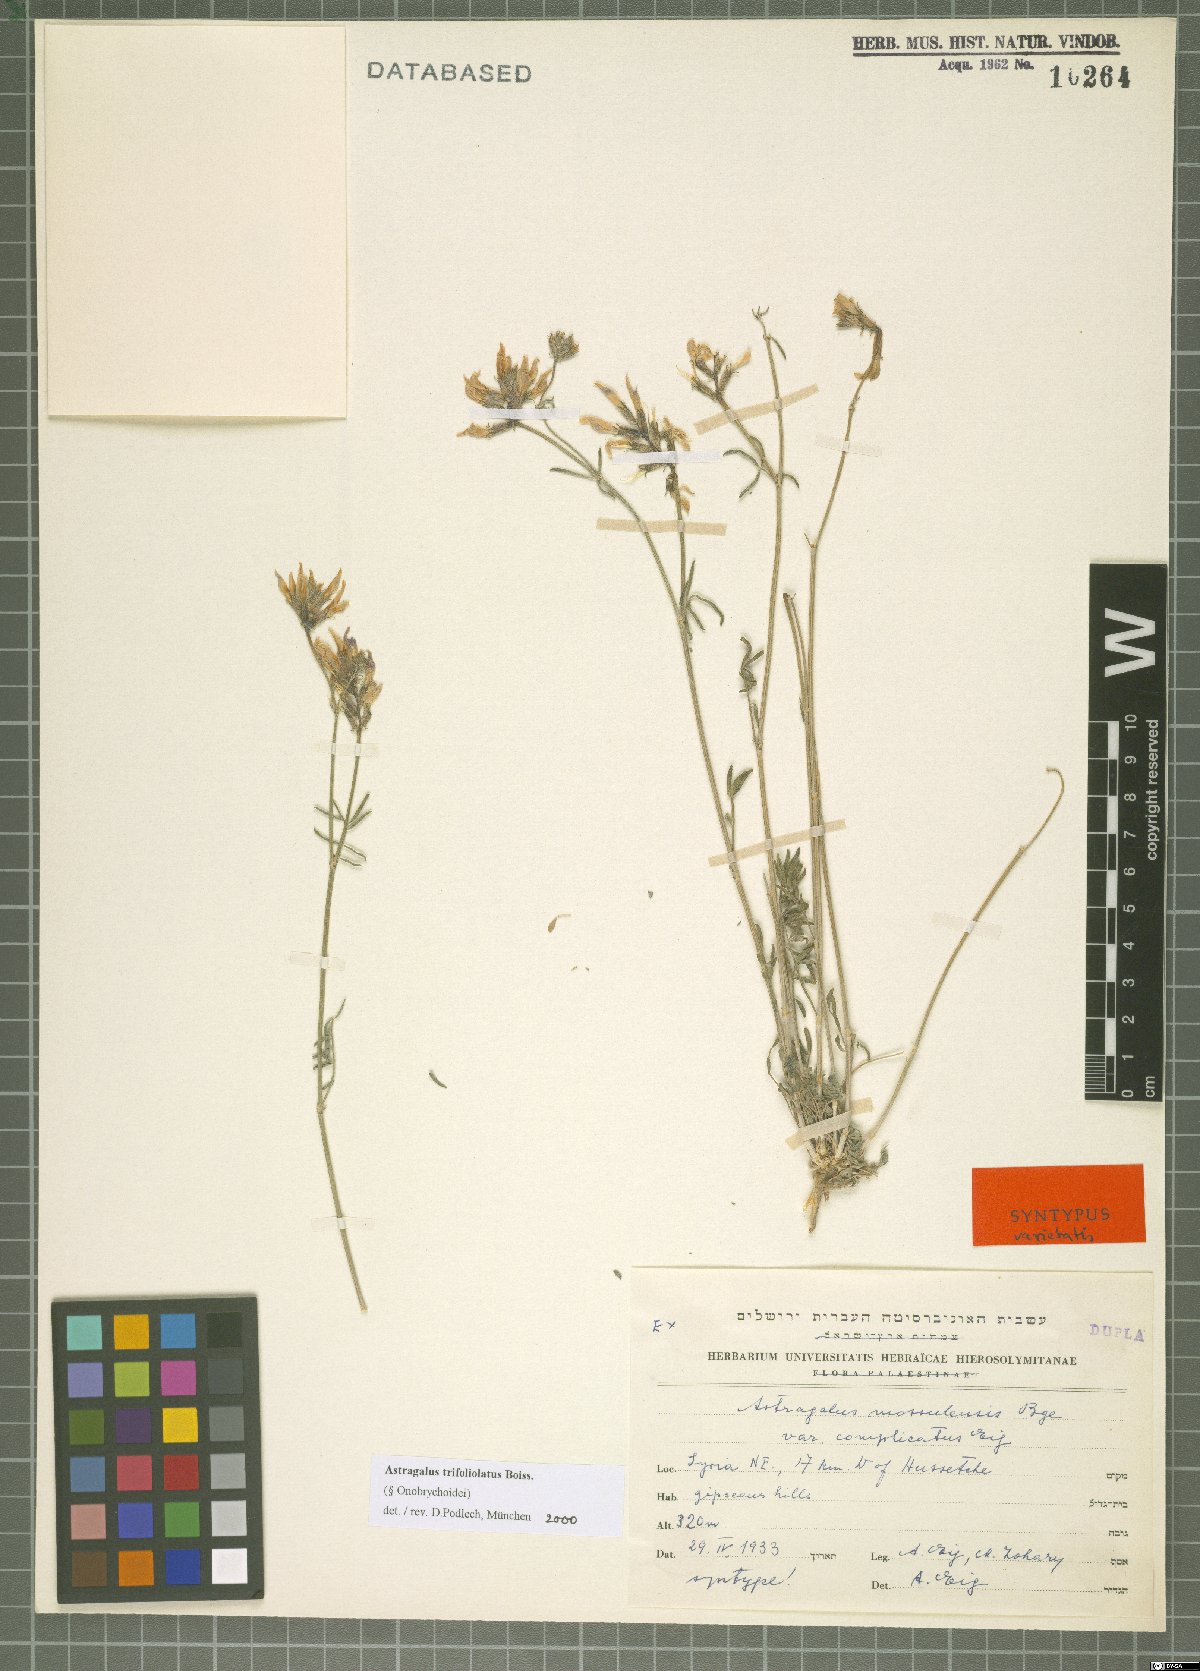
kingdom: Plantae
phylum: Tracheophyta
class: Magnoliopsida
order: Fabales
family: Fabaceae
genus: Astragalus
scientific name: Astragalus trifoliolatus
